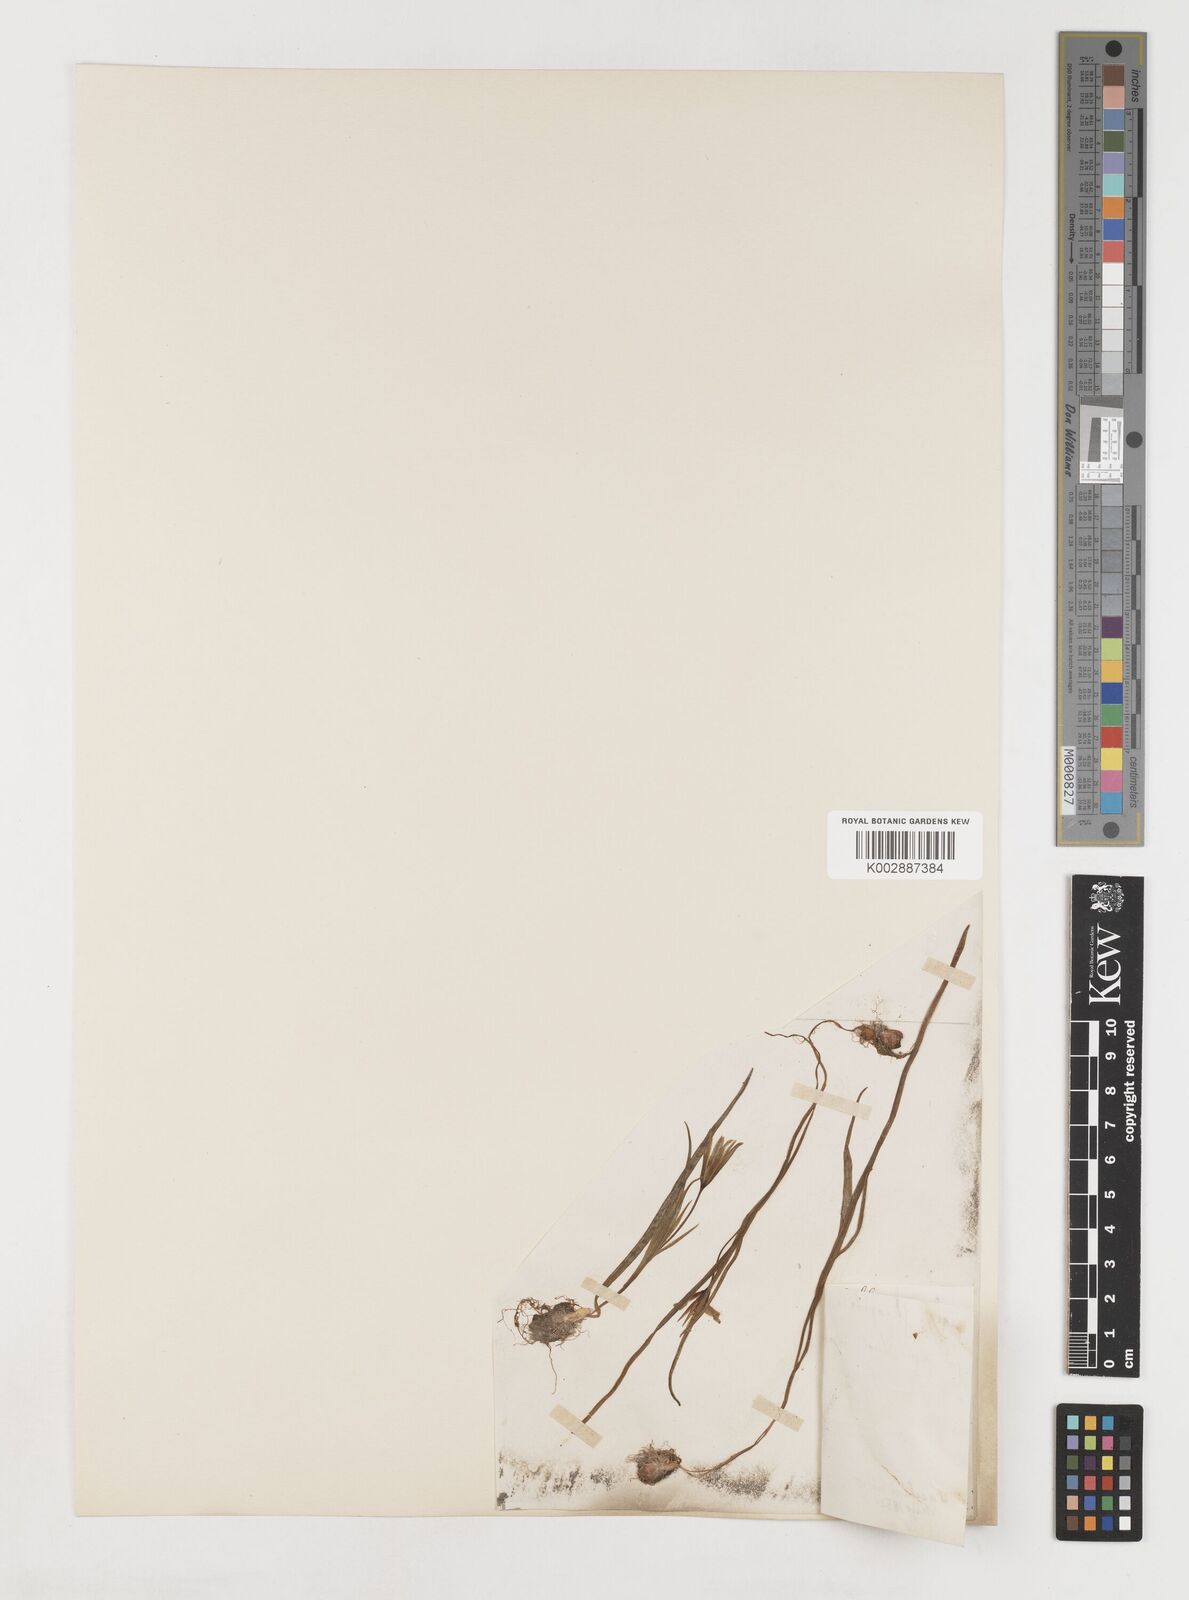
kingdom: Plantae
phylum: Tracheophyta
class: Liliopsida
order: Liliales
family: Liliaceae
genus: Gagea
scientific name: Gagea pratensis
